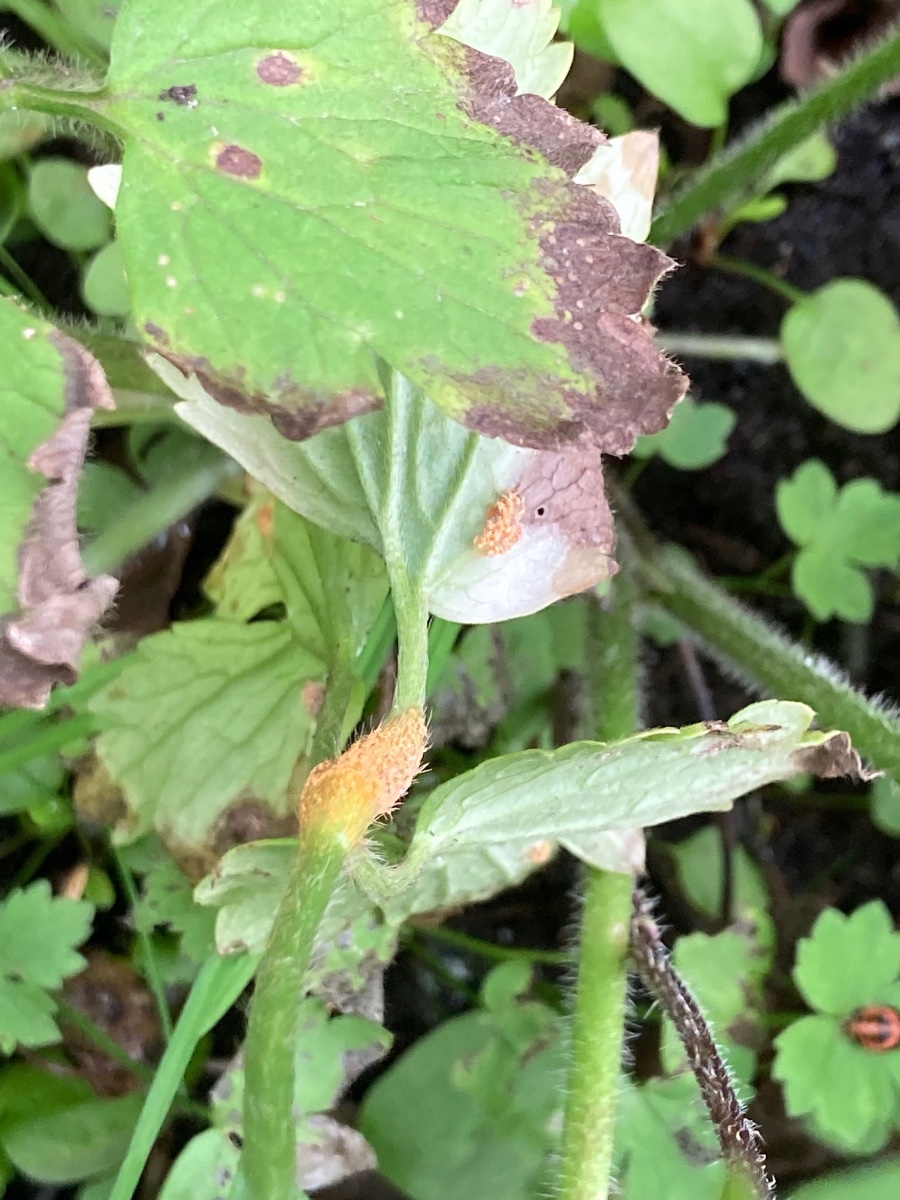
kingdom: Fungi
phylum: Basidiomycota
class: Pucciniomycetes
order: Pucciniales
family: Pucciniaceae
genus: Puccinia
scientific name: Puccinia recondita
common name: Brown rust of wheat
